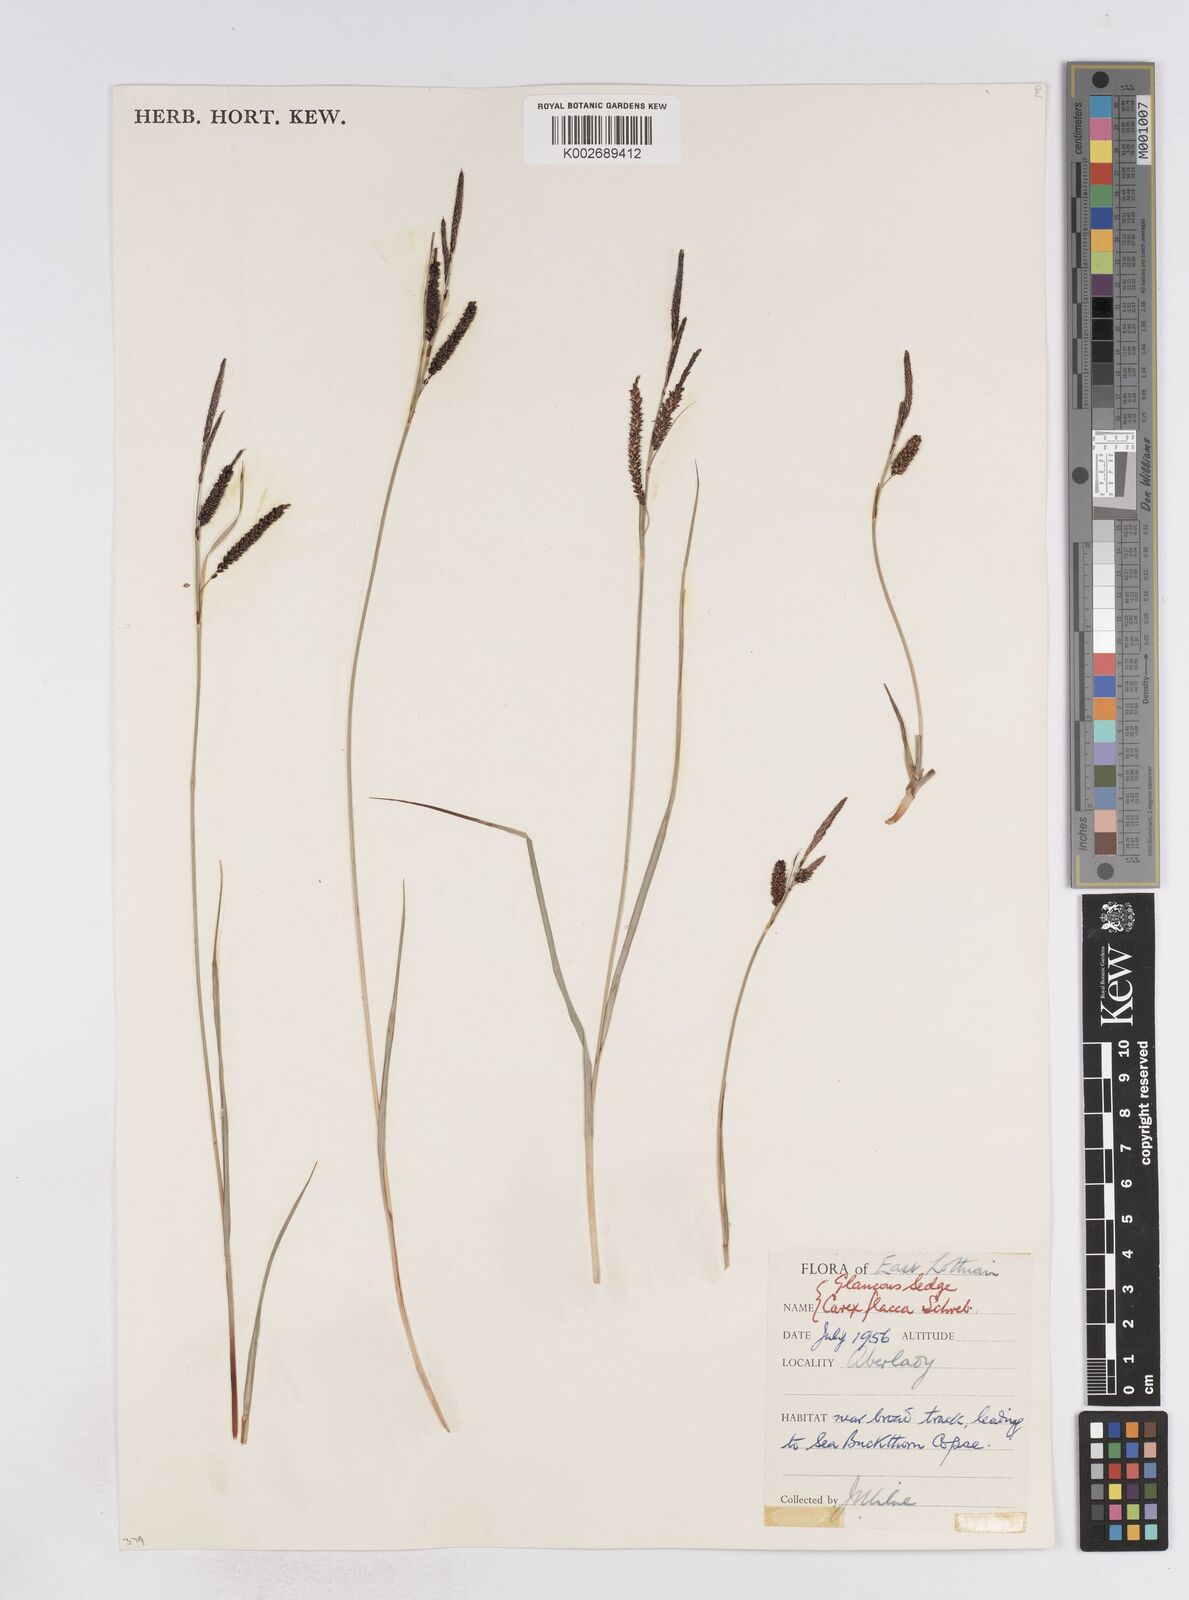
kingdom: Plantae
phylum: Tracheophyta
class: Liliopsida
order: Poales
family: Cyperaceae
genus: Carex
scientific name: Carex flacca
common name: Glaucous sedge
